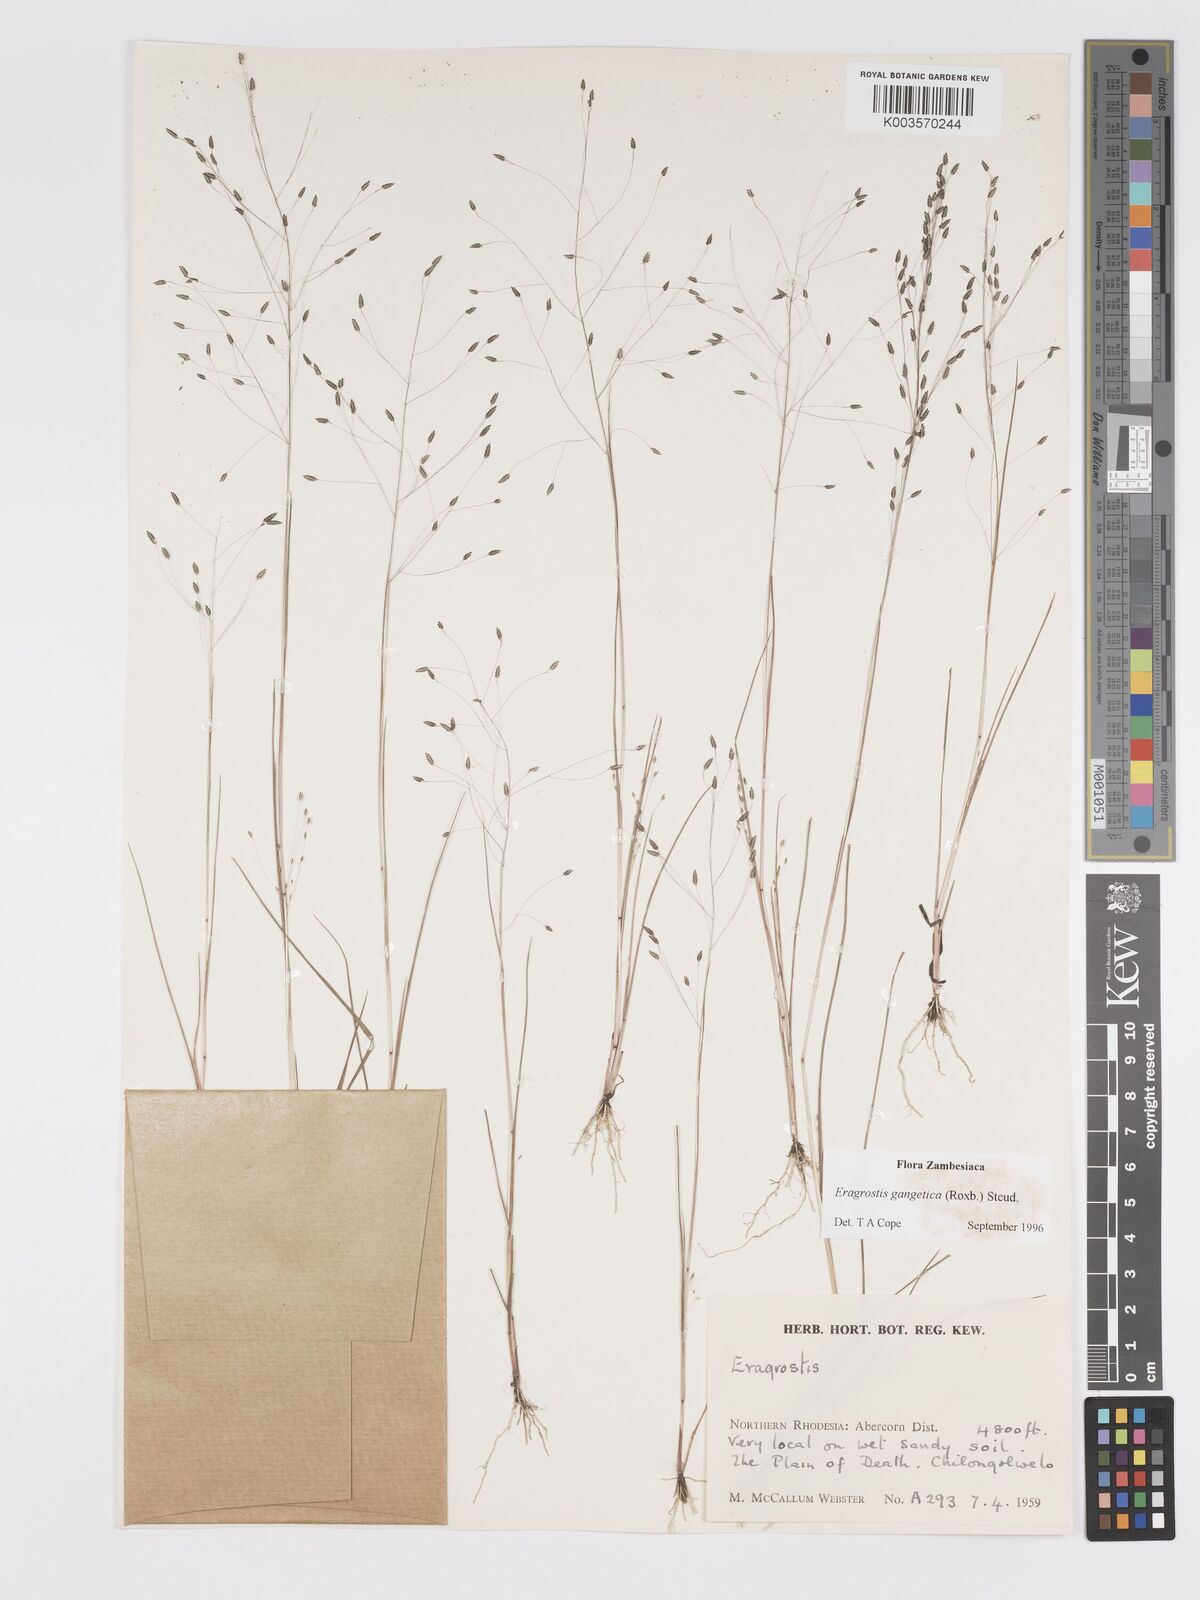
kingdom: Plantae
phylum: Tracheophyta
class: Liliopsida
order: Poales
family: Poaceae
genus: Eragrostis
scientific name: Eragrostis gangetica
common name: Slimflower lovegrass
